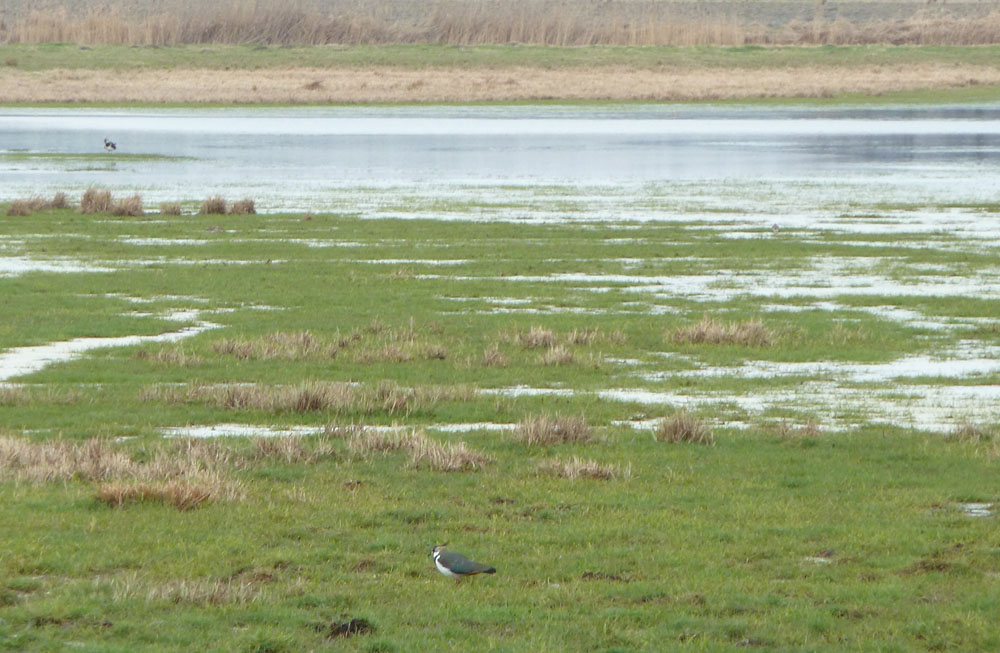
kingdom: Animalia
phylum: Chordata
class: Aves
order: Charadriiformes
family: Charadriidae
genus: Vanellus
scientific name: Vanellus vanellus
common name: Northern lapwing
